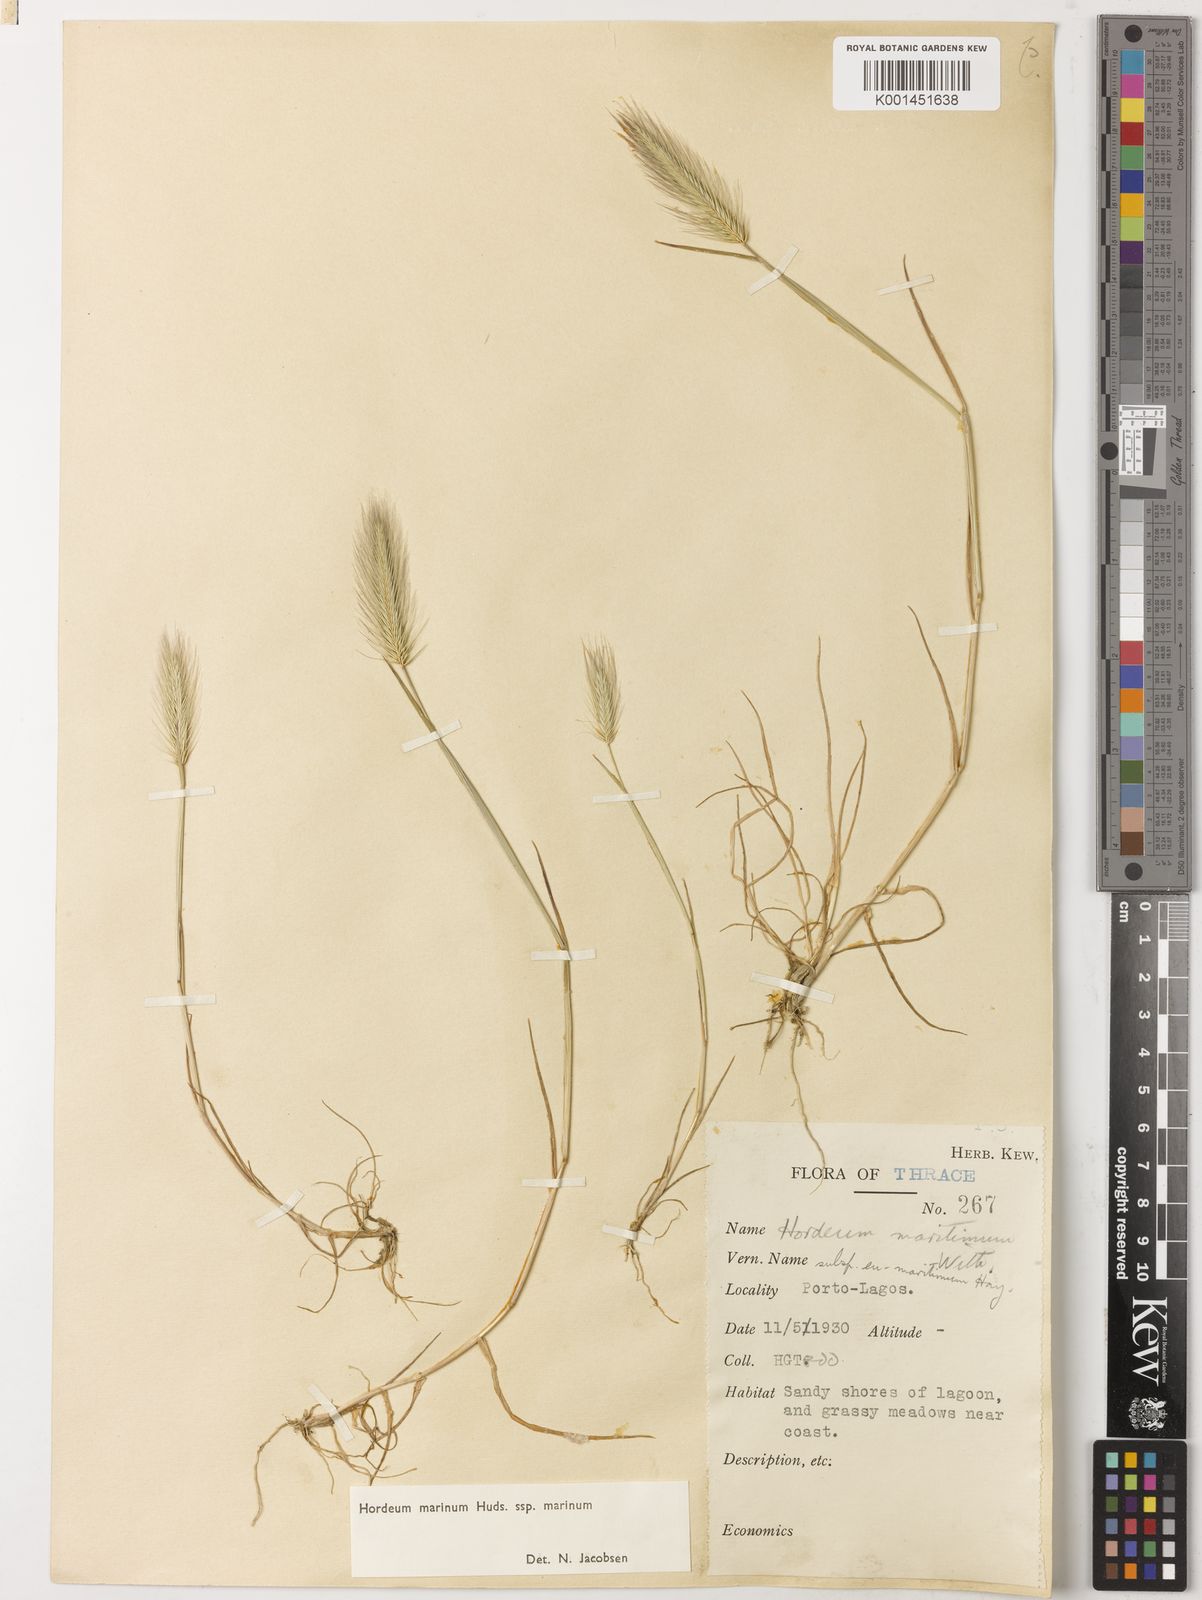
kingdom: Plantae
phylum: Tracheophyta
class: Liliopsida
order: Poales
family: Poaceae
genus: Hordeum
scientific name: Hordeum marinum
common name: Sea barley
